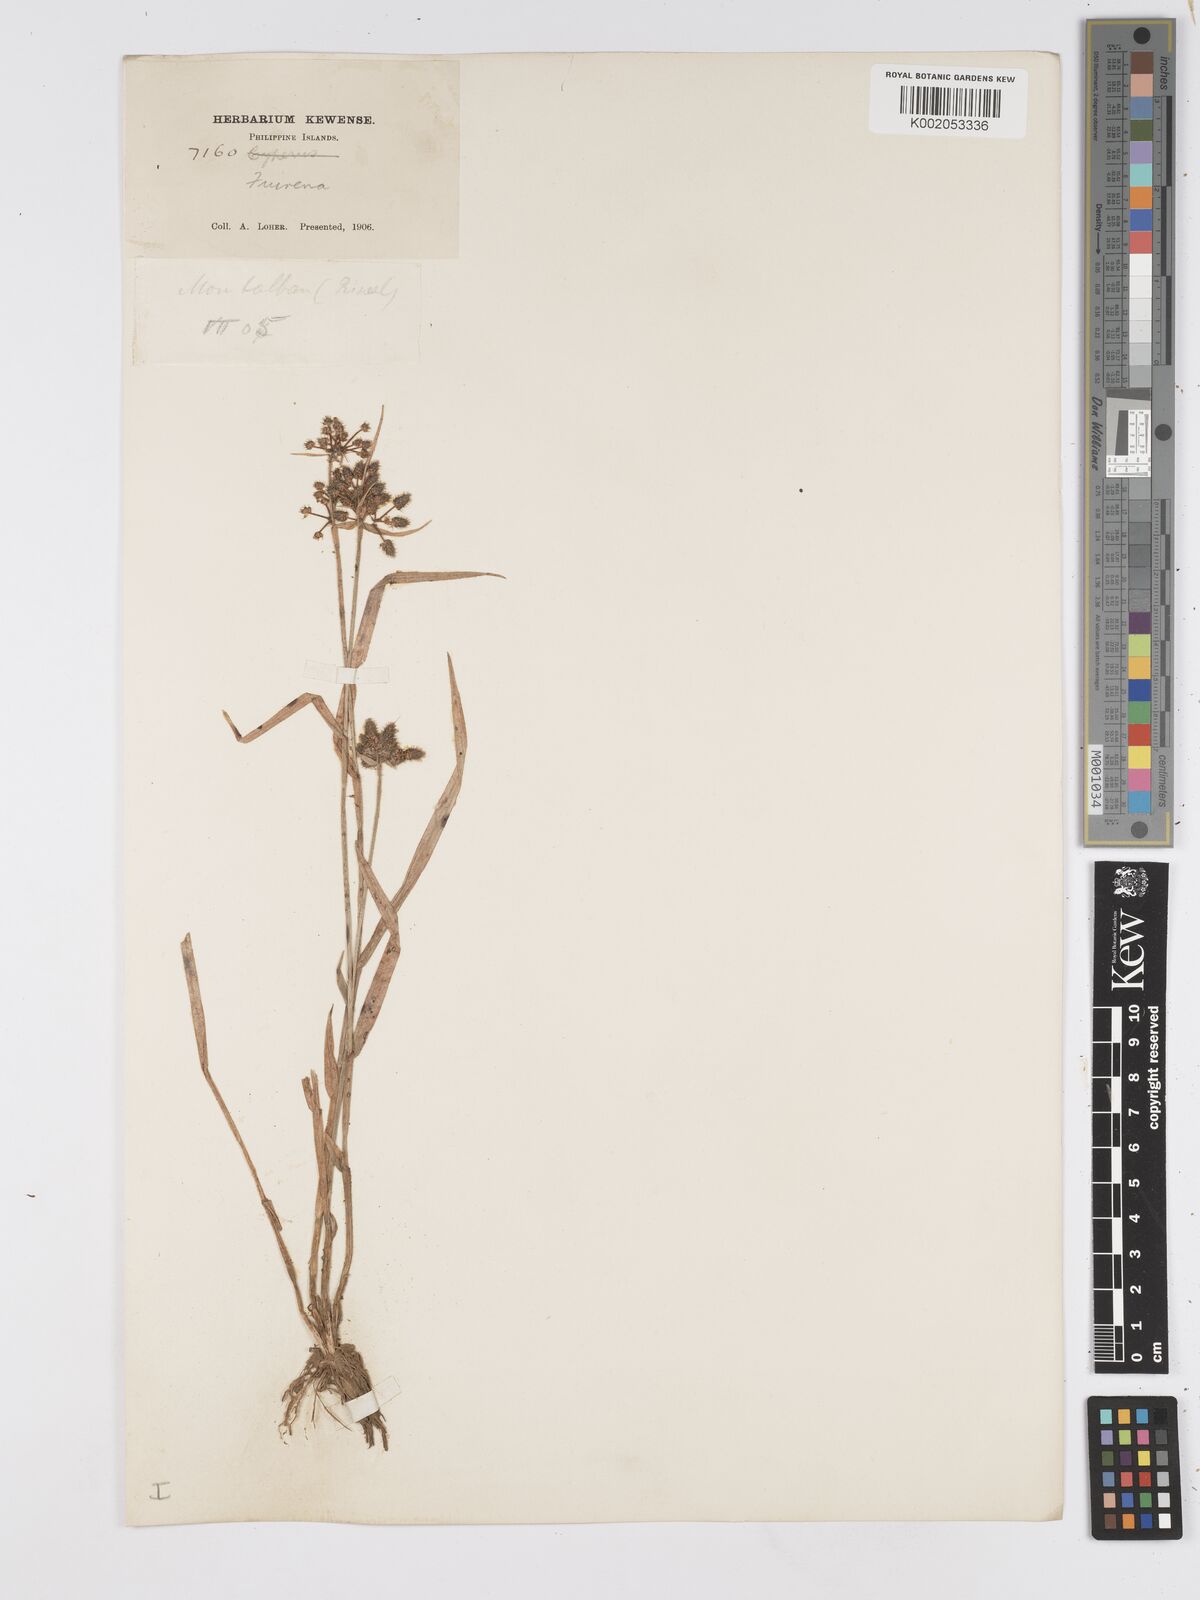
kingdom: Plantae
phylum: Tracheophyta
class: Liliopsida
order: Poales
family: Cyperaceae
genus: Fuirena
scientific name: Fuirena ciliaris
